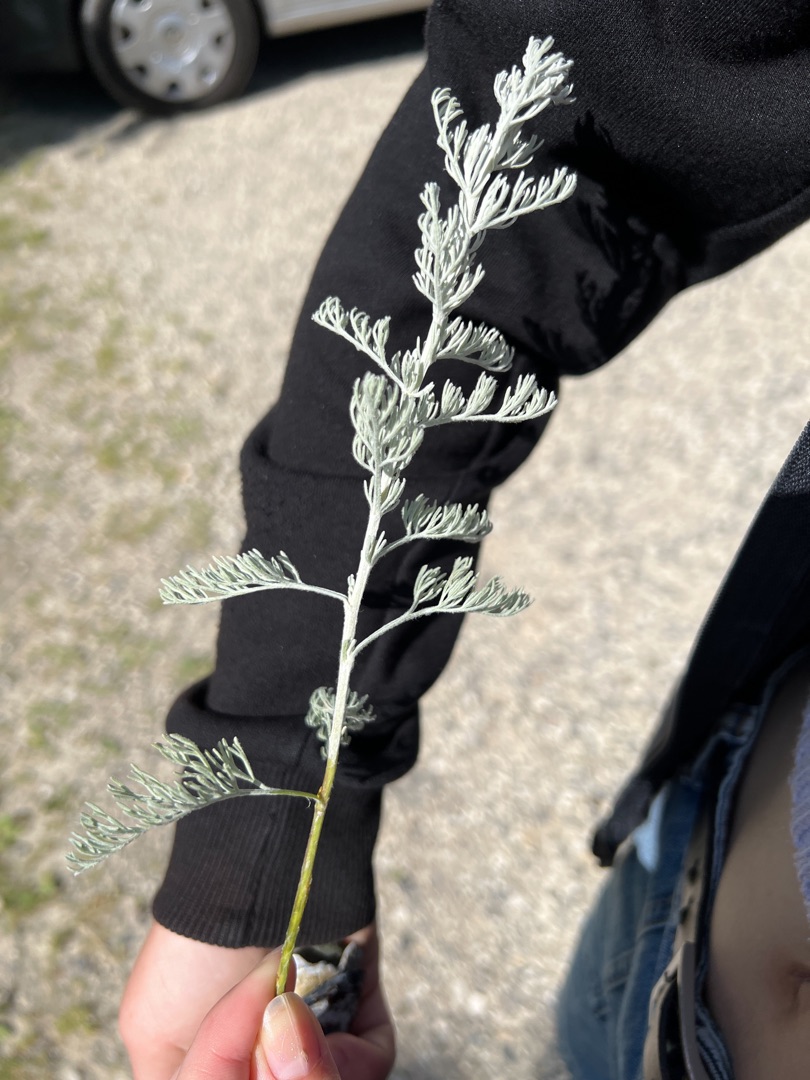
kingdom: Plantae
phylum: Tracheophyta
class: Magnoliopsida
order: Asterales
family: Asteraceae
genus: Artemisia
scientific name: Artemisia maritima
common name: Strandmalurt
